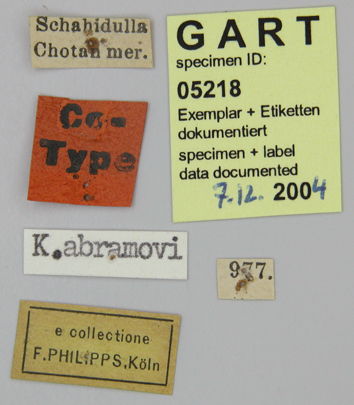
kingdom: Animalia
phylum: Arthropoda
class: Insecta
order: Lepidoptera
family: Papilionidae
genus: Parnassius
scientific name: Parnassius staudingeri
